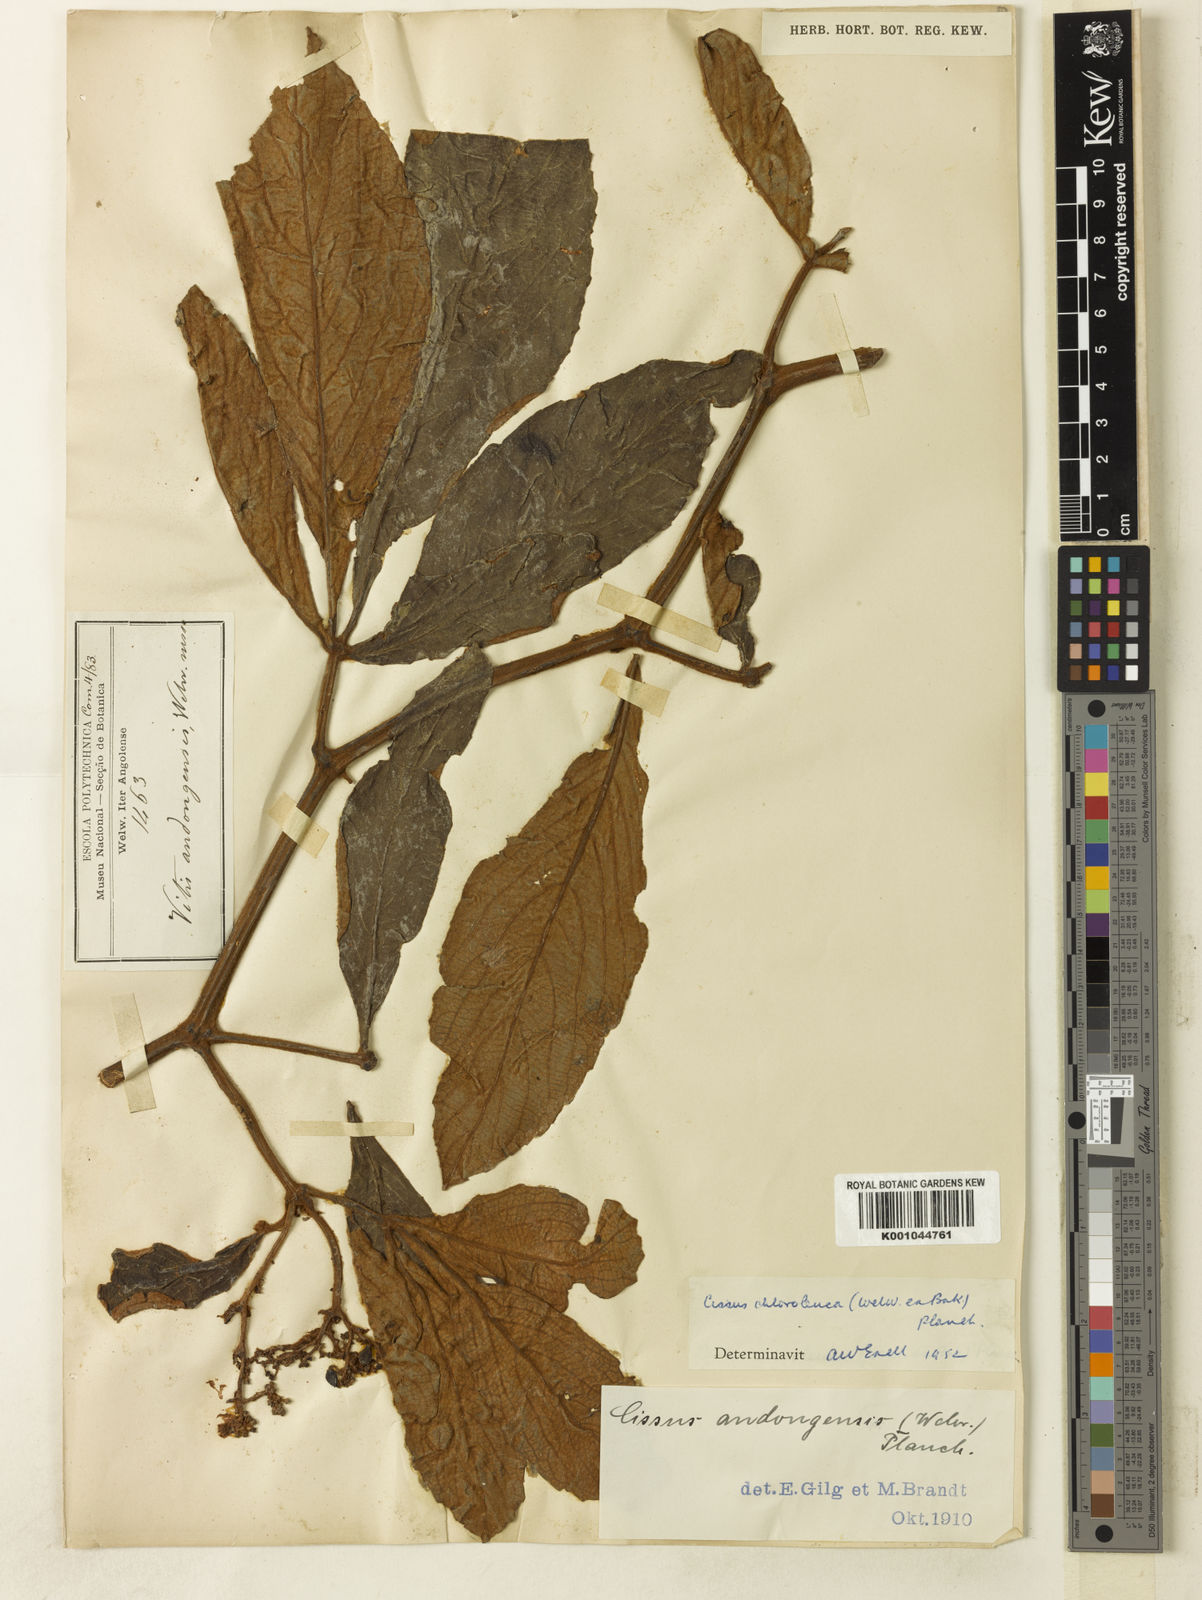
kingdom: Plantae
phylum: Tracheophyta
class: Magnoliopsida
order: Vitales
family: Vitaceae
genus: Cyphostemma
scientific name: Cyphostemma chloroleucum
